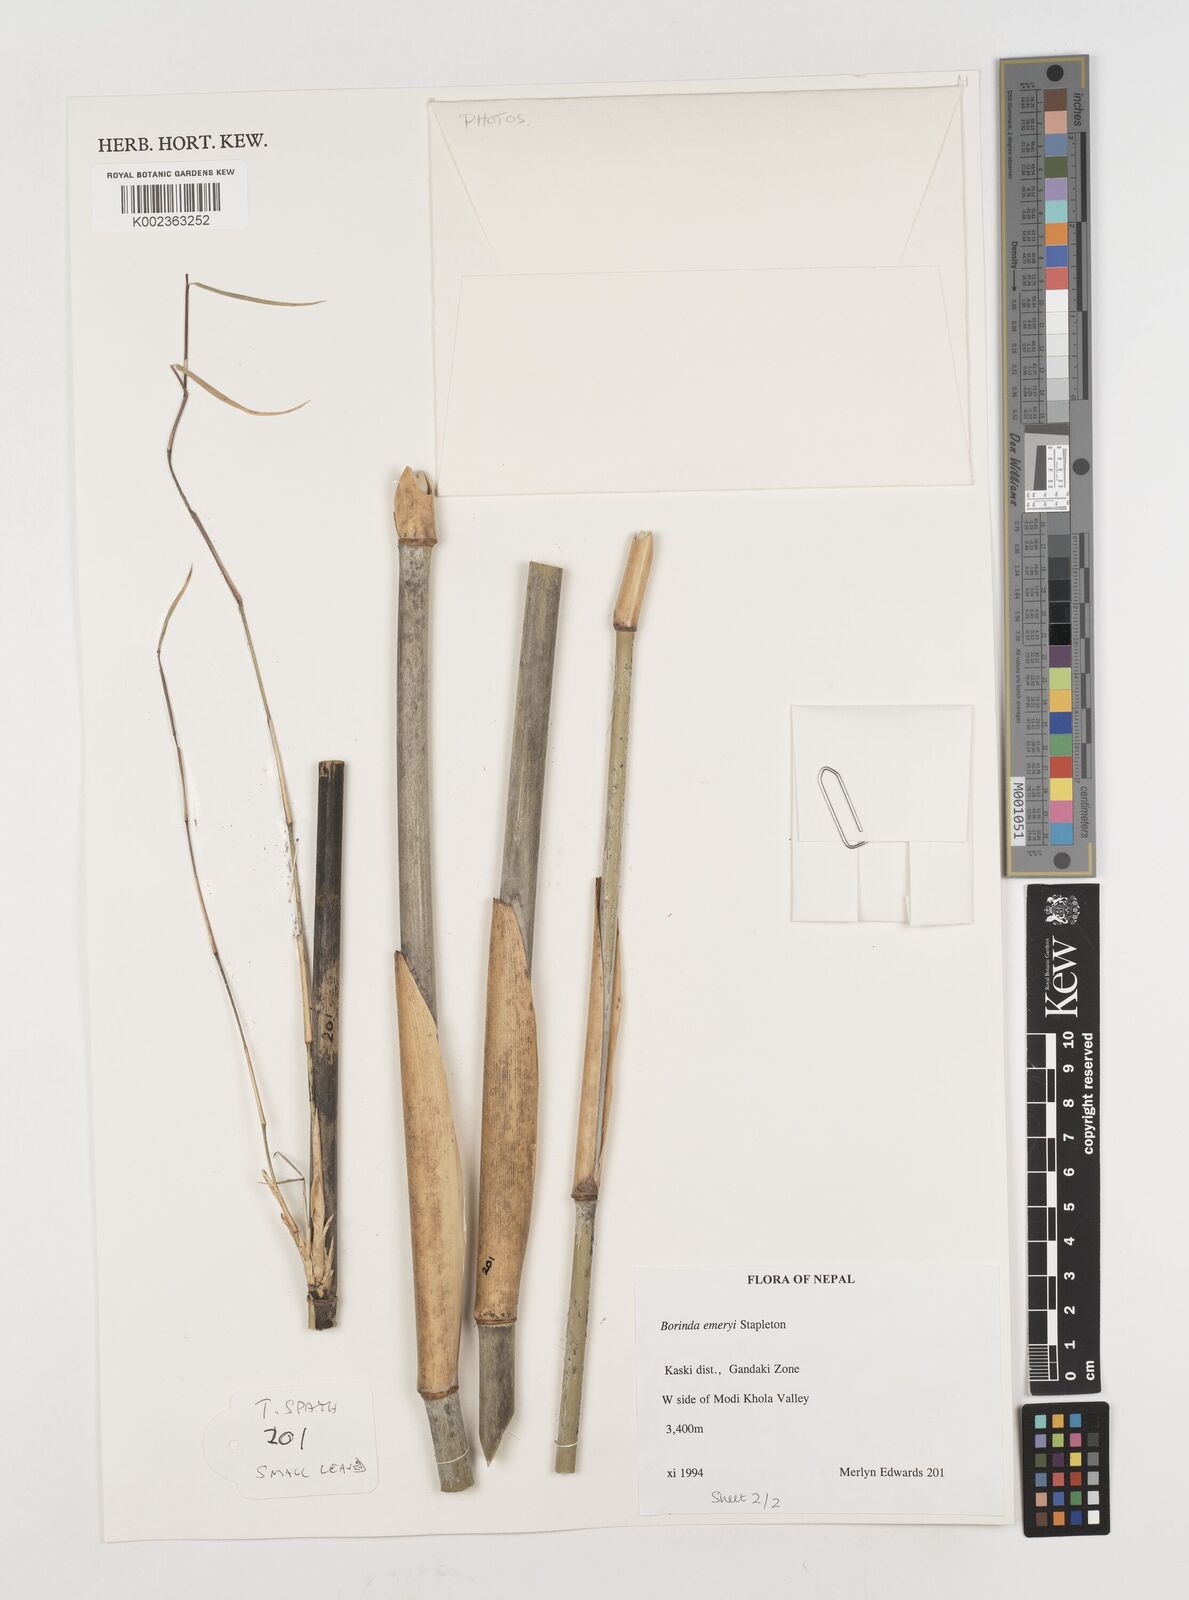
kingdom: Plantae
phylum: Tracheophyta
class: Liliopsida
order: Poales
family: Poaceae
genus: Fargesia
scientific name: Fargesia
